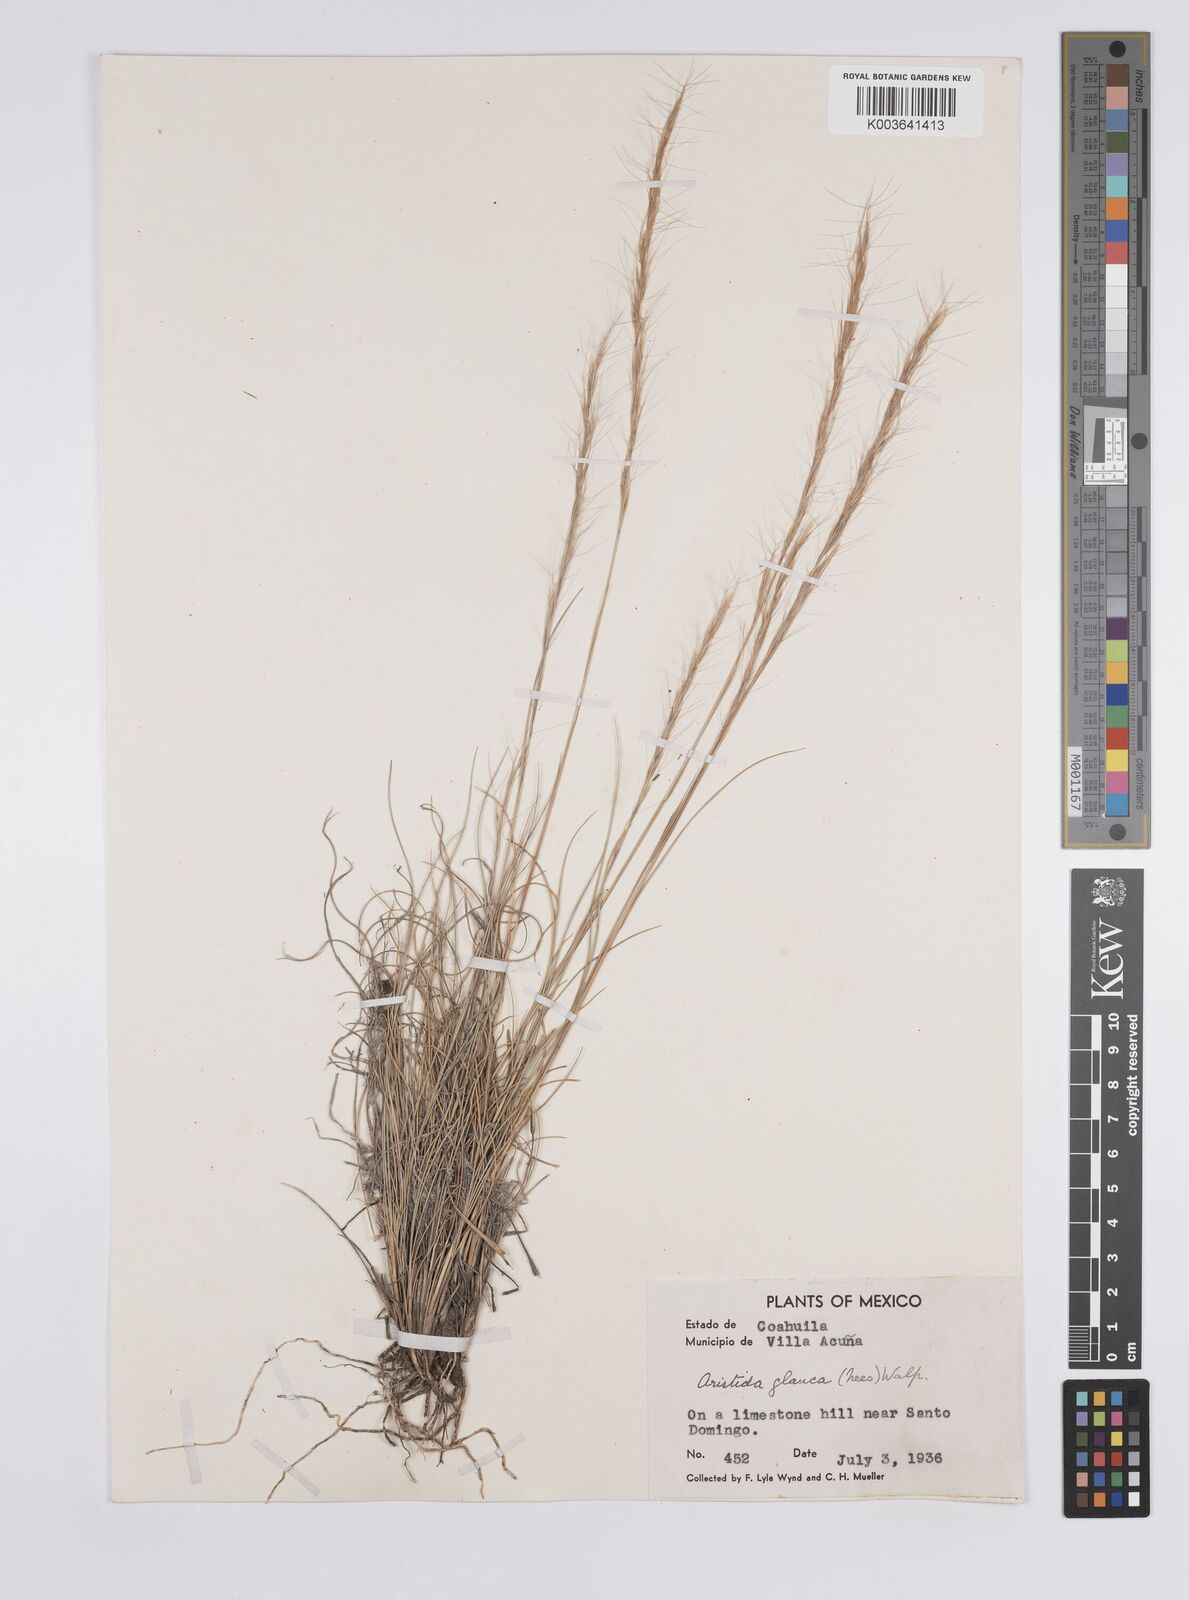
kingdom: Plantae
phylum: Tracheophyta
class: Liliopsida
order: Poales
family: Poaceae
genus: Aristida
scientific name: Aristida purpurea
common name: Purple threeawn
